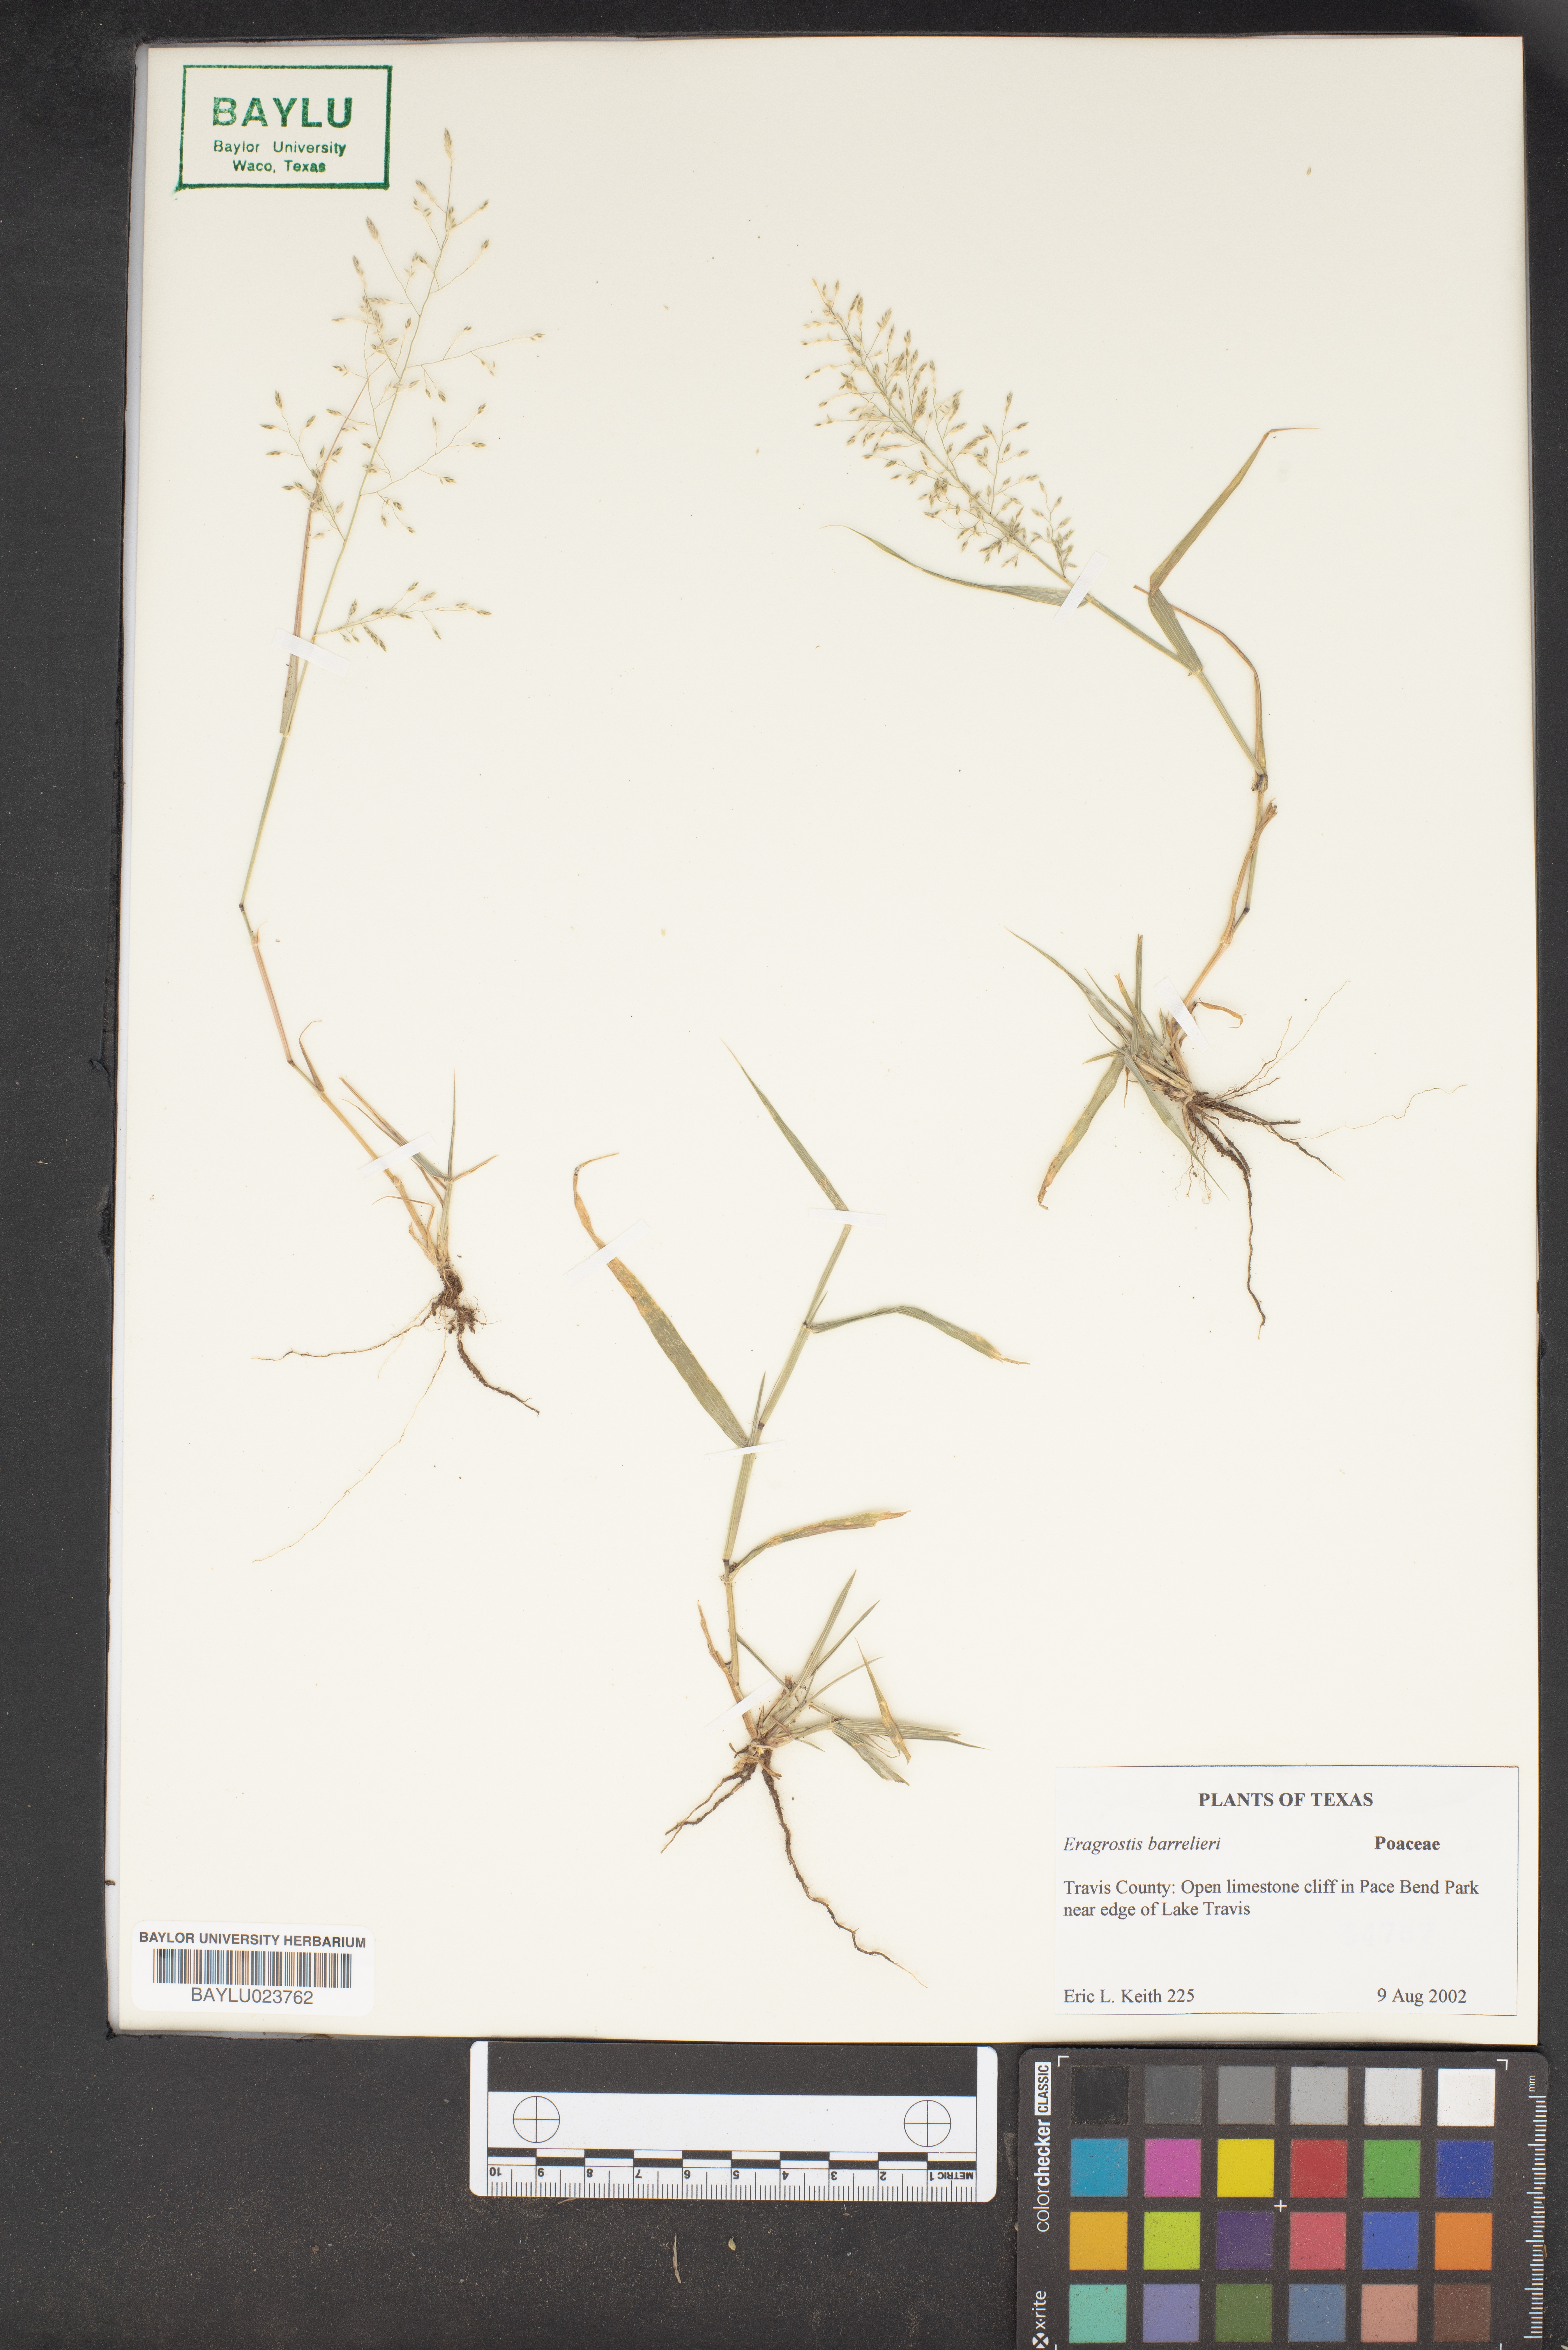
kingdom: Plantae
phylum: Tracheophyta
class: Liliopsida
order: Poales
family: Poaceae
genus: Eragrostis
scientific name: Eragrostis barrelieri
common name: Mediterranean lovegrass
